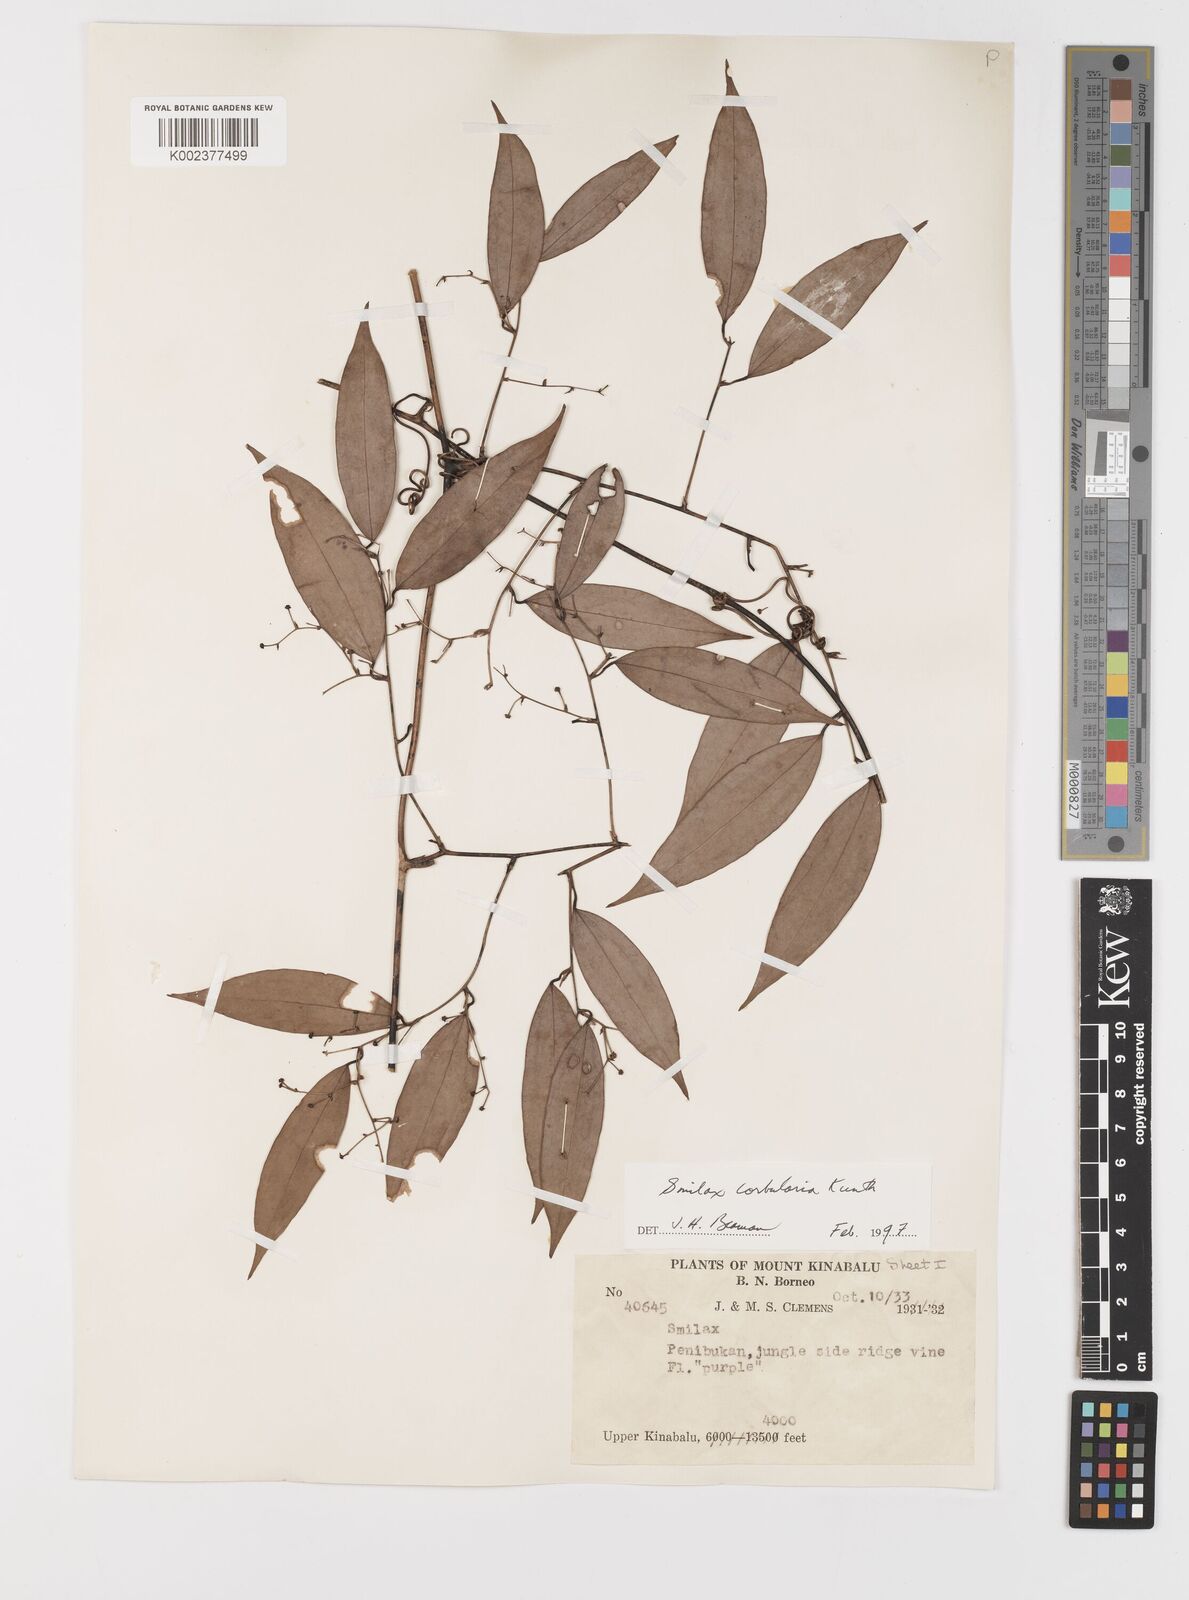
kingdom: Plantae
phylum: Tracheophyta
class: Liliopsida
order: Liliales
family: Smilacaceae
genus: Smilax
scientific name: Smilax corbularia
